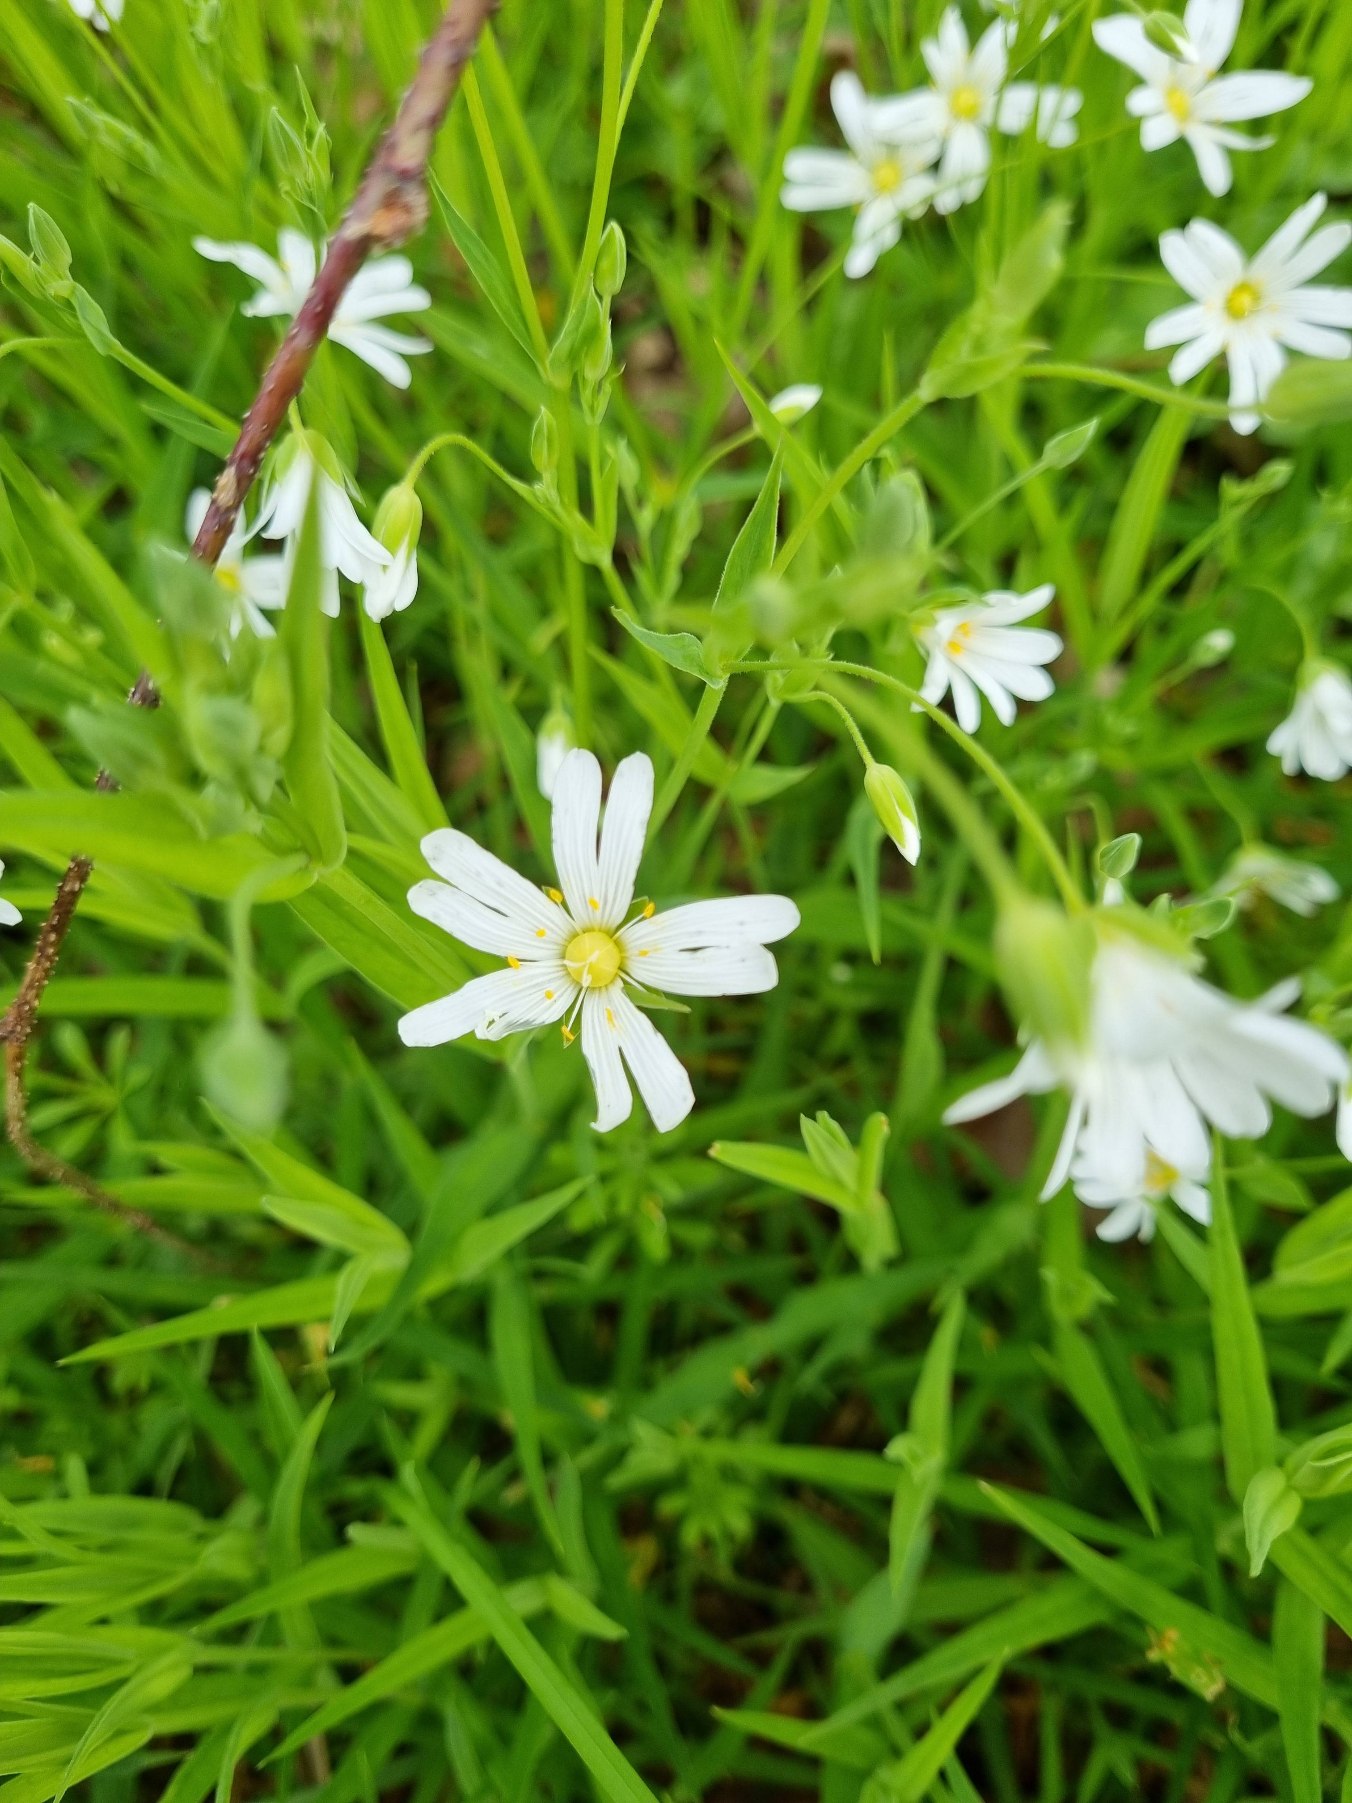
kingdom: Plantae
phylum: Tracheophyta
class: Magnoliopsida
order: Caryophyllales
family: Caryophyllaceae
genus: Rabelera
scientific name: Rabelera holostea
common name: Stor fladstjerne
